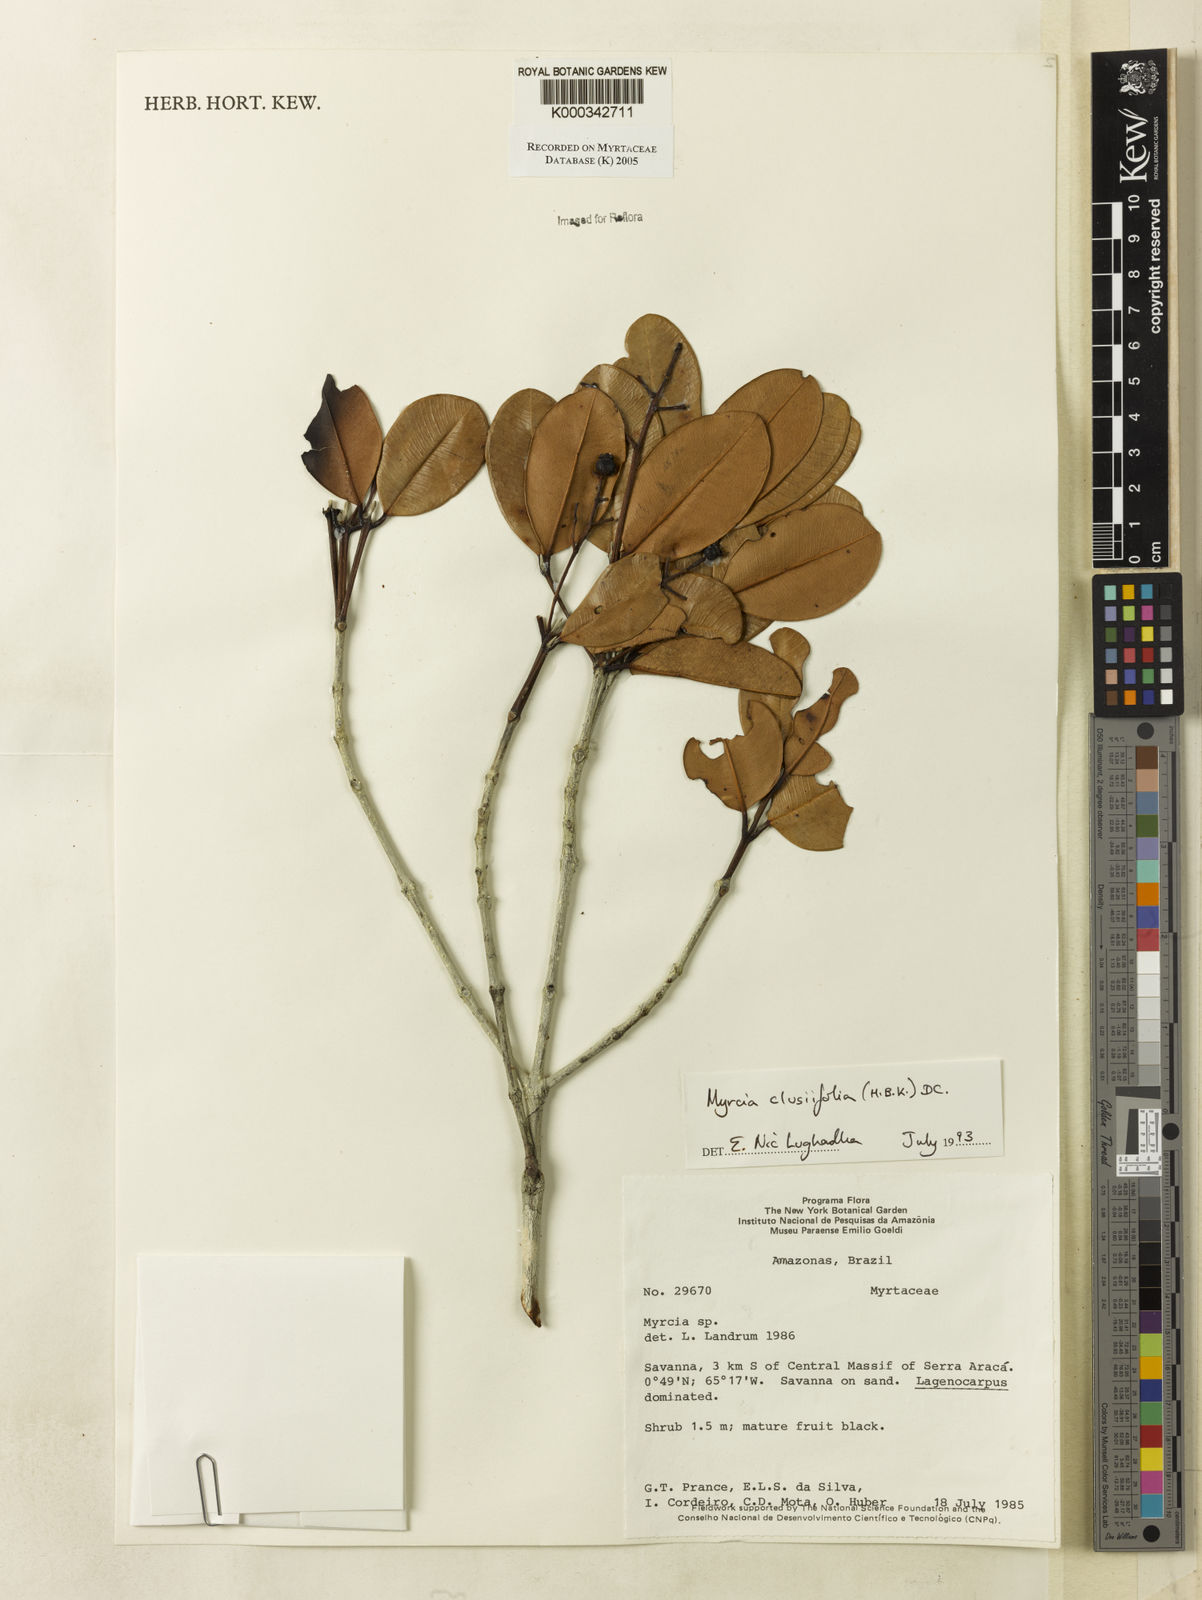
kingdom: Plantae
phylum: Tracheophyta
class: Magnoliopsida
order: Myrtales
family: Myrtaceae
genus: Myrcia
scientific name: Myrcia clusiifolia
